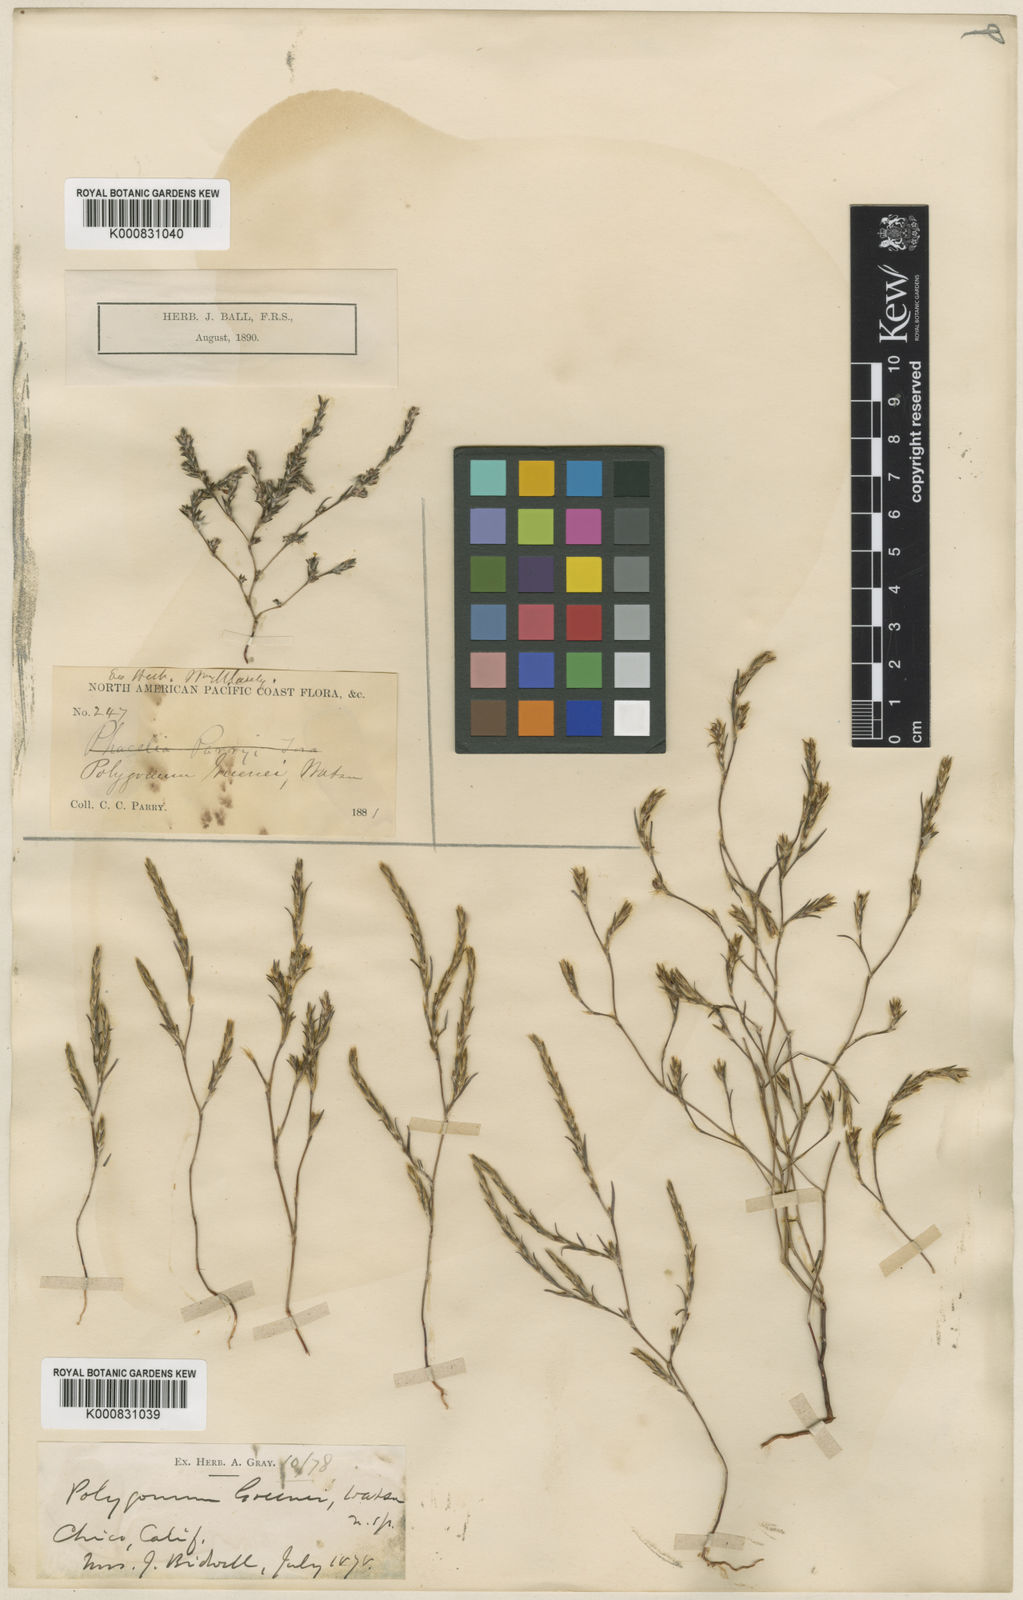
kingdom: Plantae
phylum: Tracheophyta
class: Magnoliopsida
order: Caryophyllales
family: Polygonaceae
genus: Polygonum
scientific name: Polygonum californicum
